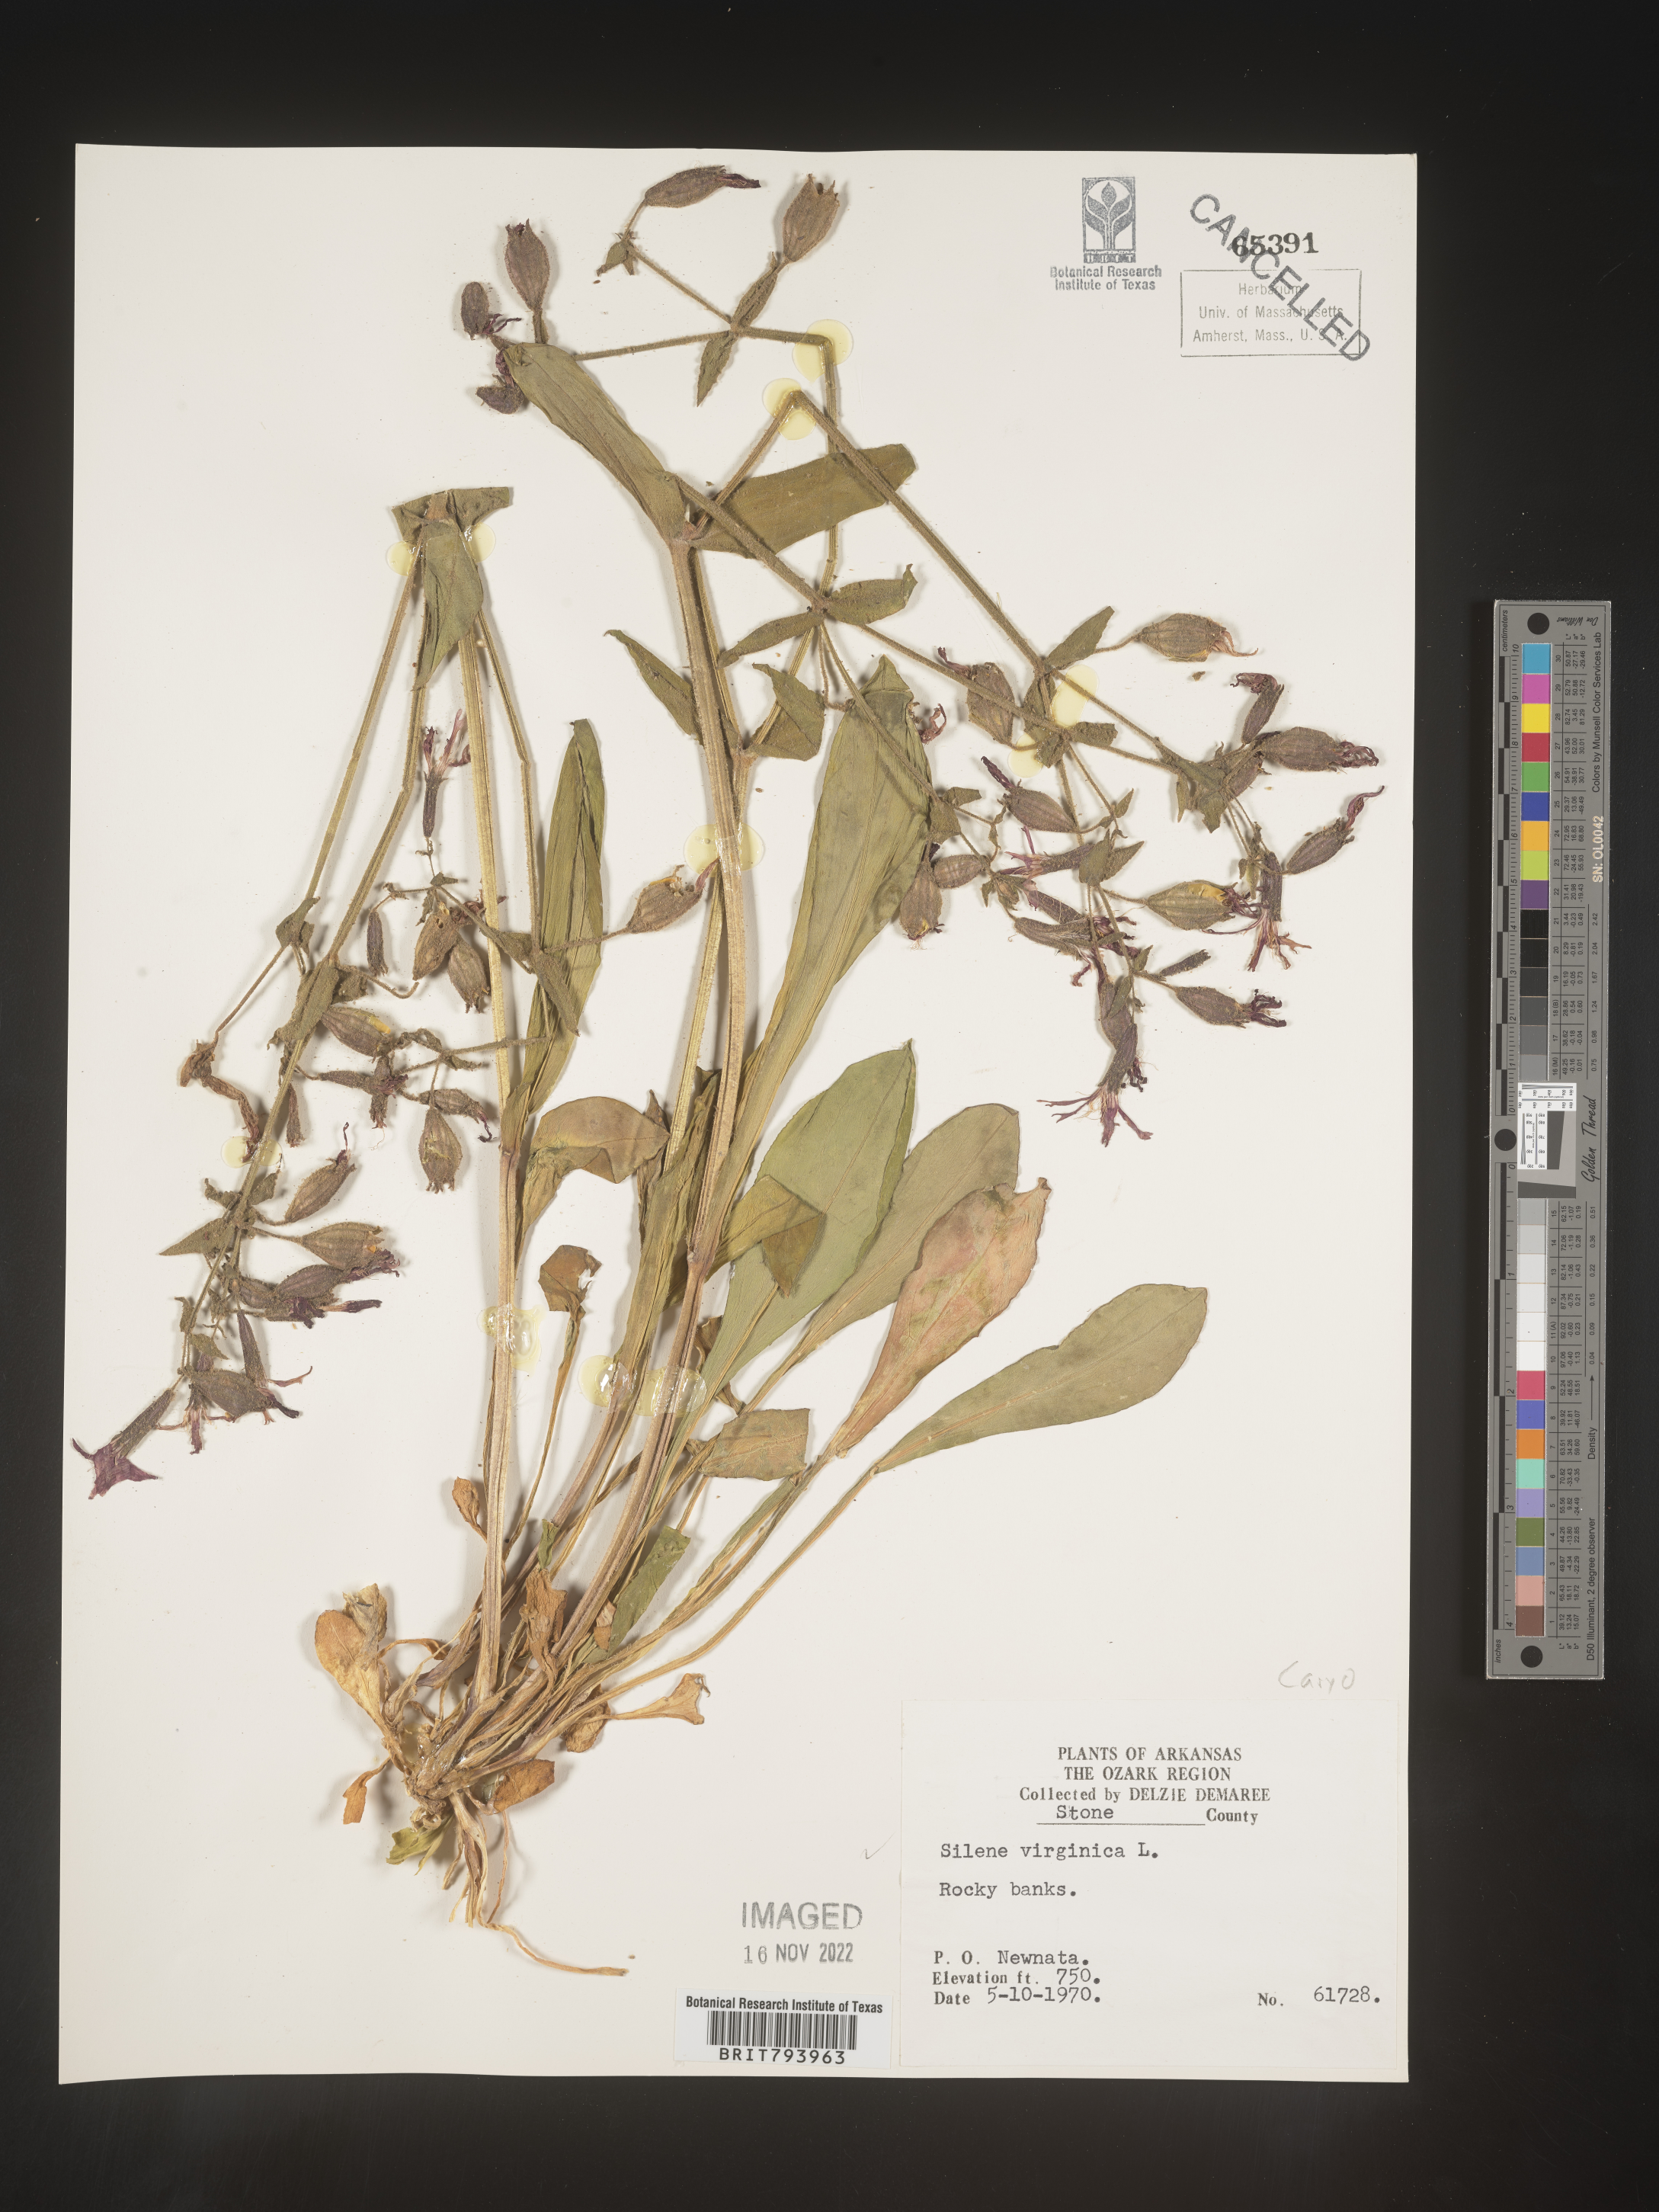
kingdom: Plantae
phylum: Tracheophyta
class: Magnoliopsida
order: Caryophyllales
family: Caryophyllaceae
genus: Silene
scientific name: Silene virginica
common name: Fire-pink
